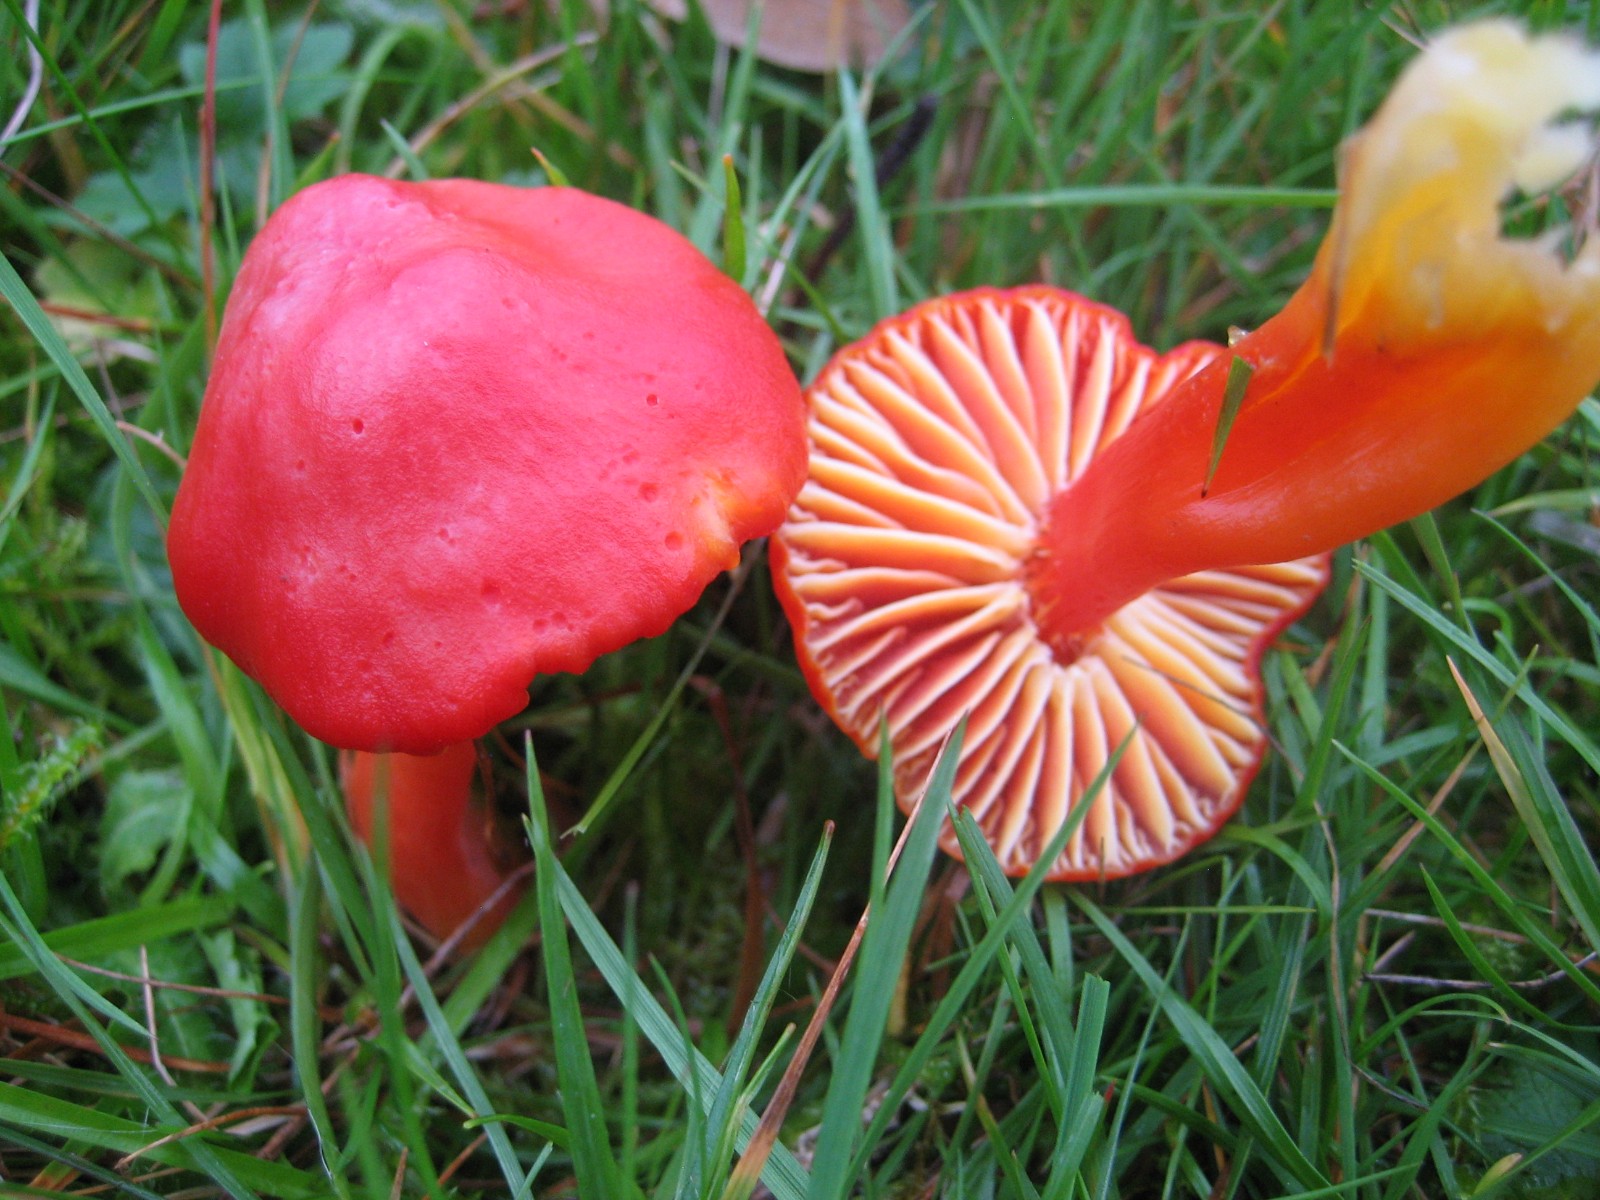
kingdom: Fungi
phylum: Basidiomycota
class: Agaricomycetes
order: Agaricales
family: Hygrophoraceae
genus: Hygrocybe
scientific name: Hygrocybe coccinea
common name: cinnober-vokshat
